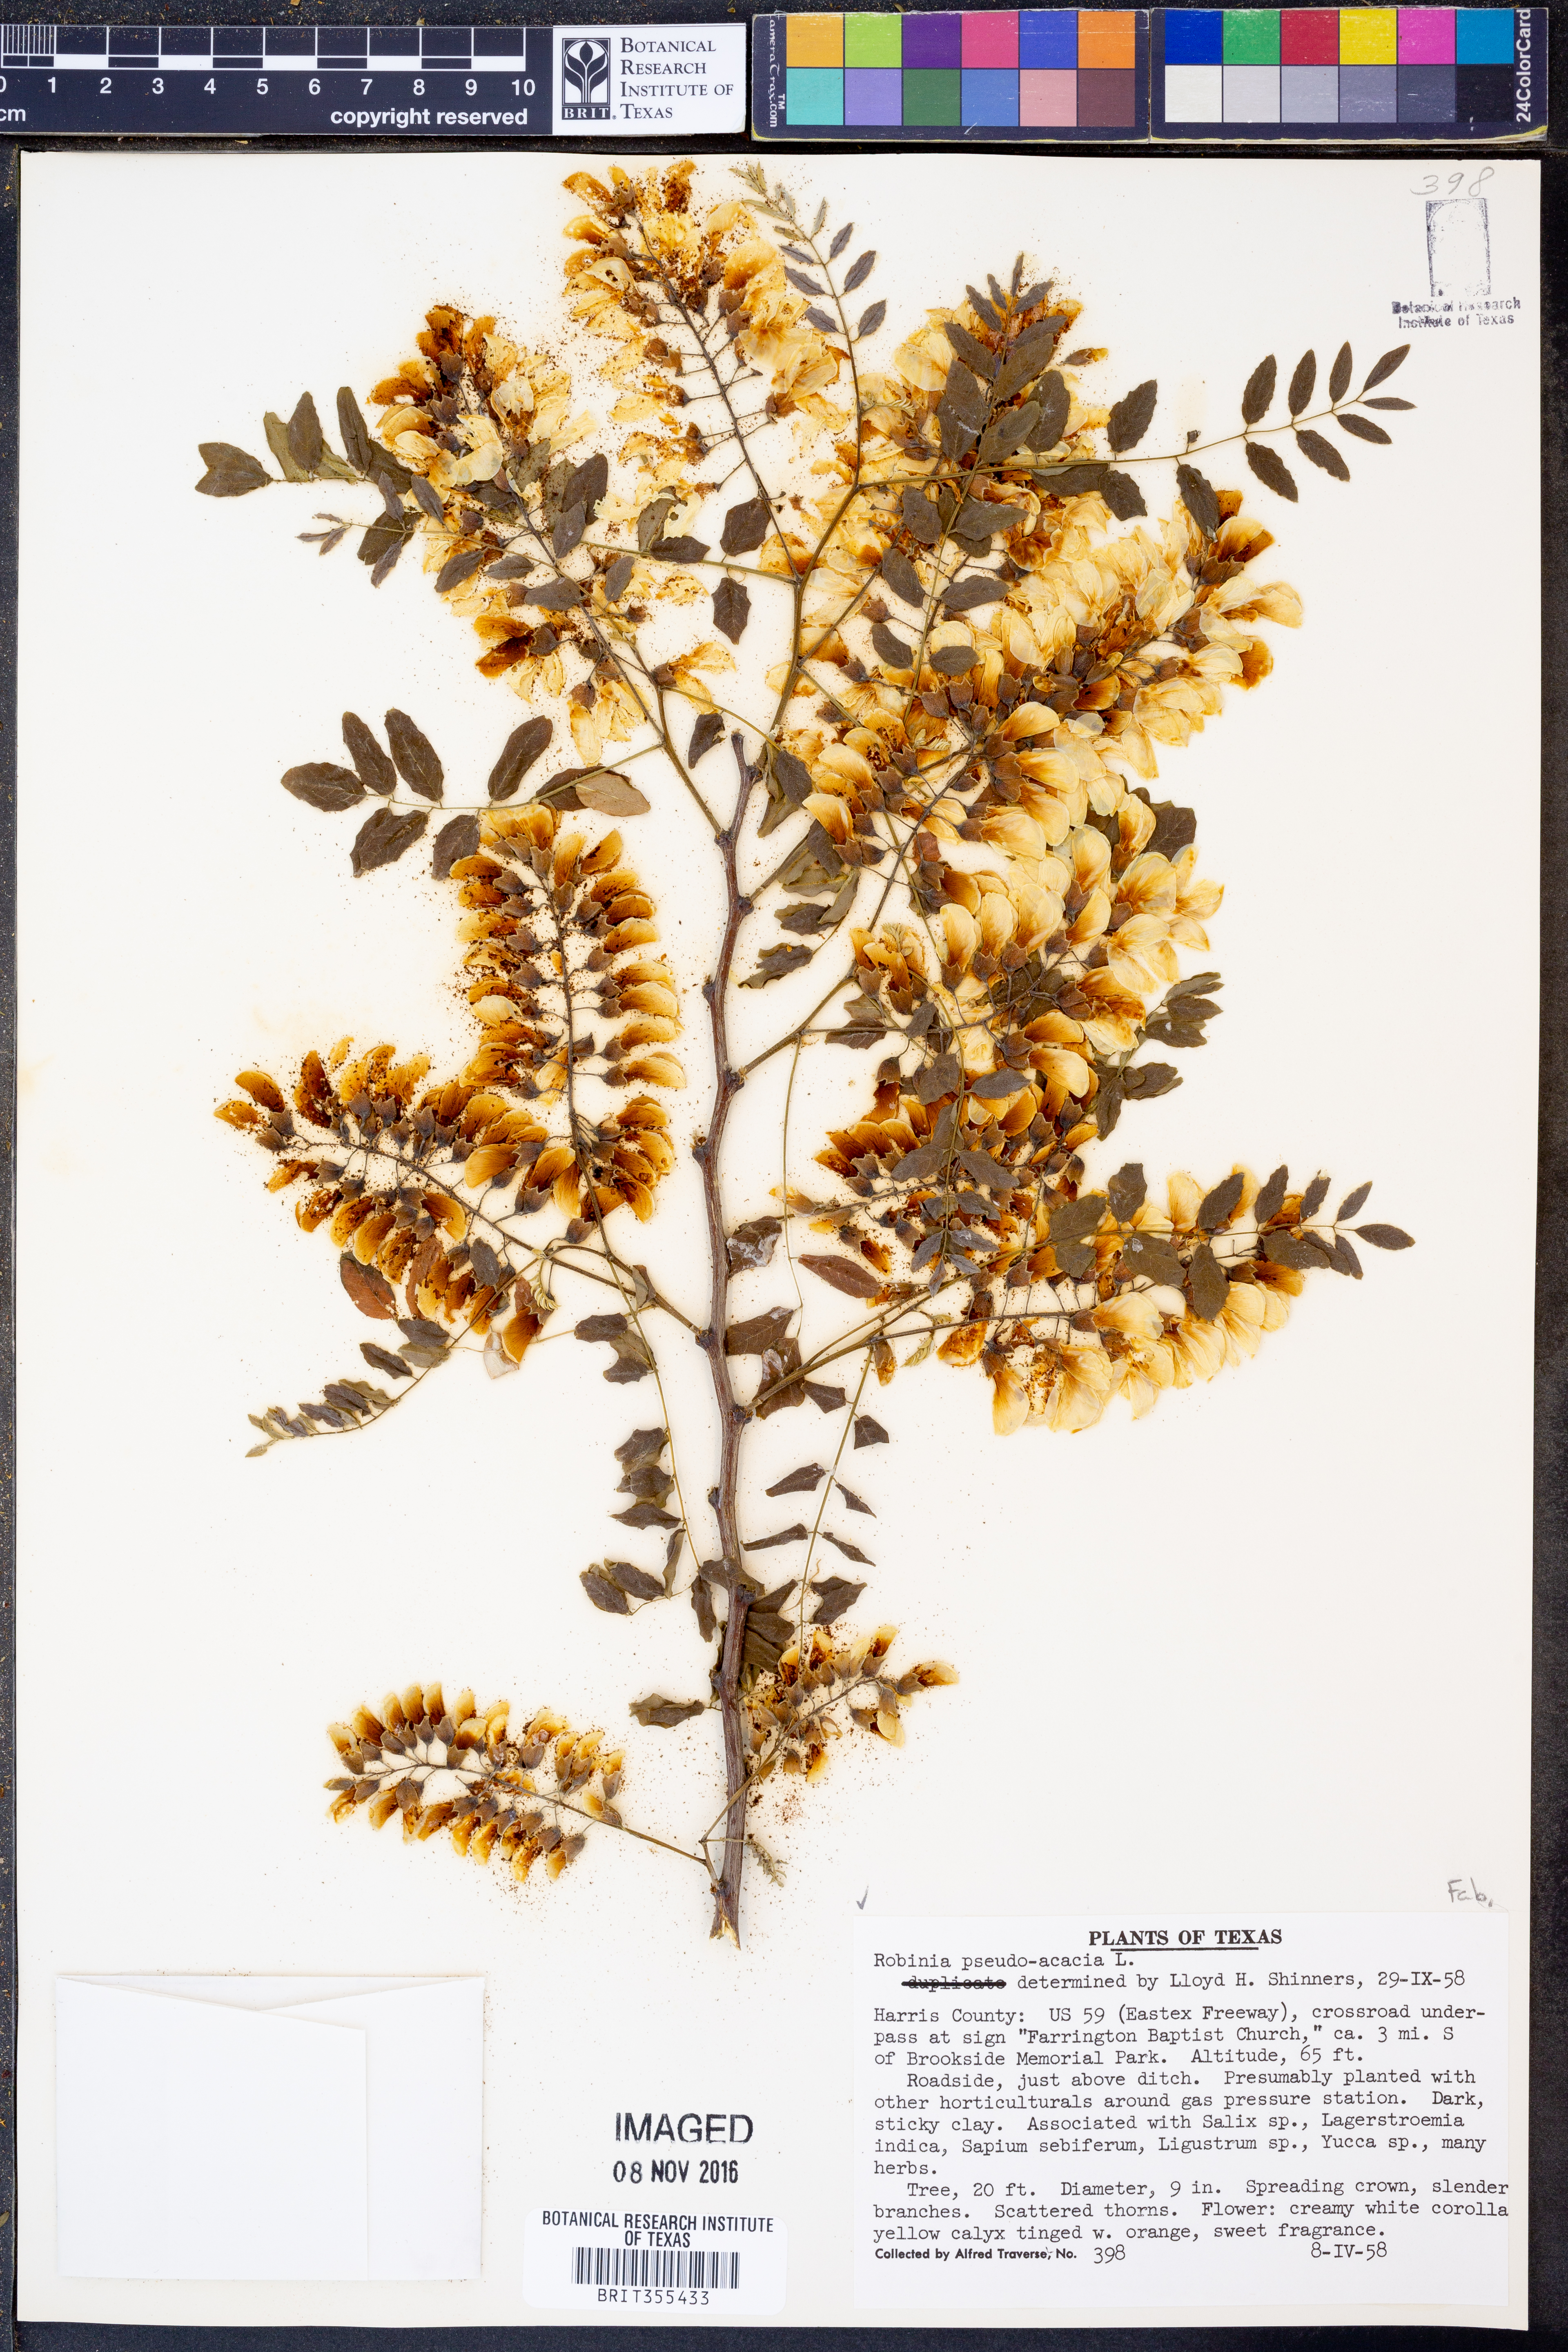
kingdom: Plantae
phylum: Tracheophyta
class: Magnoliopsida
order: Fabales
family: Fabaceae
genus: Robinia
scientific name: Robinia pseudoacacia
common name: Black locust
